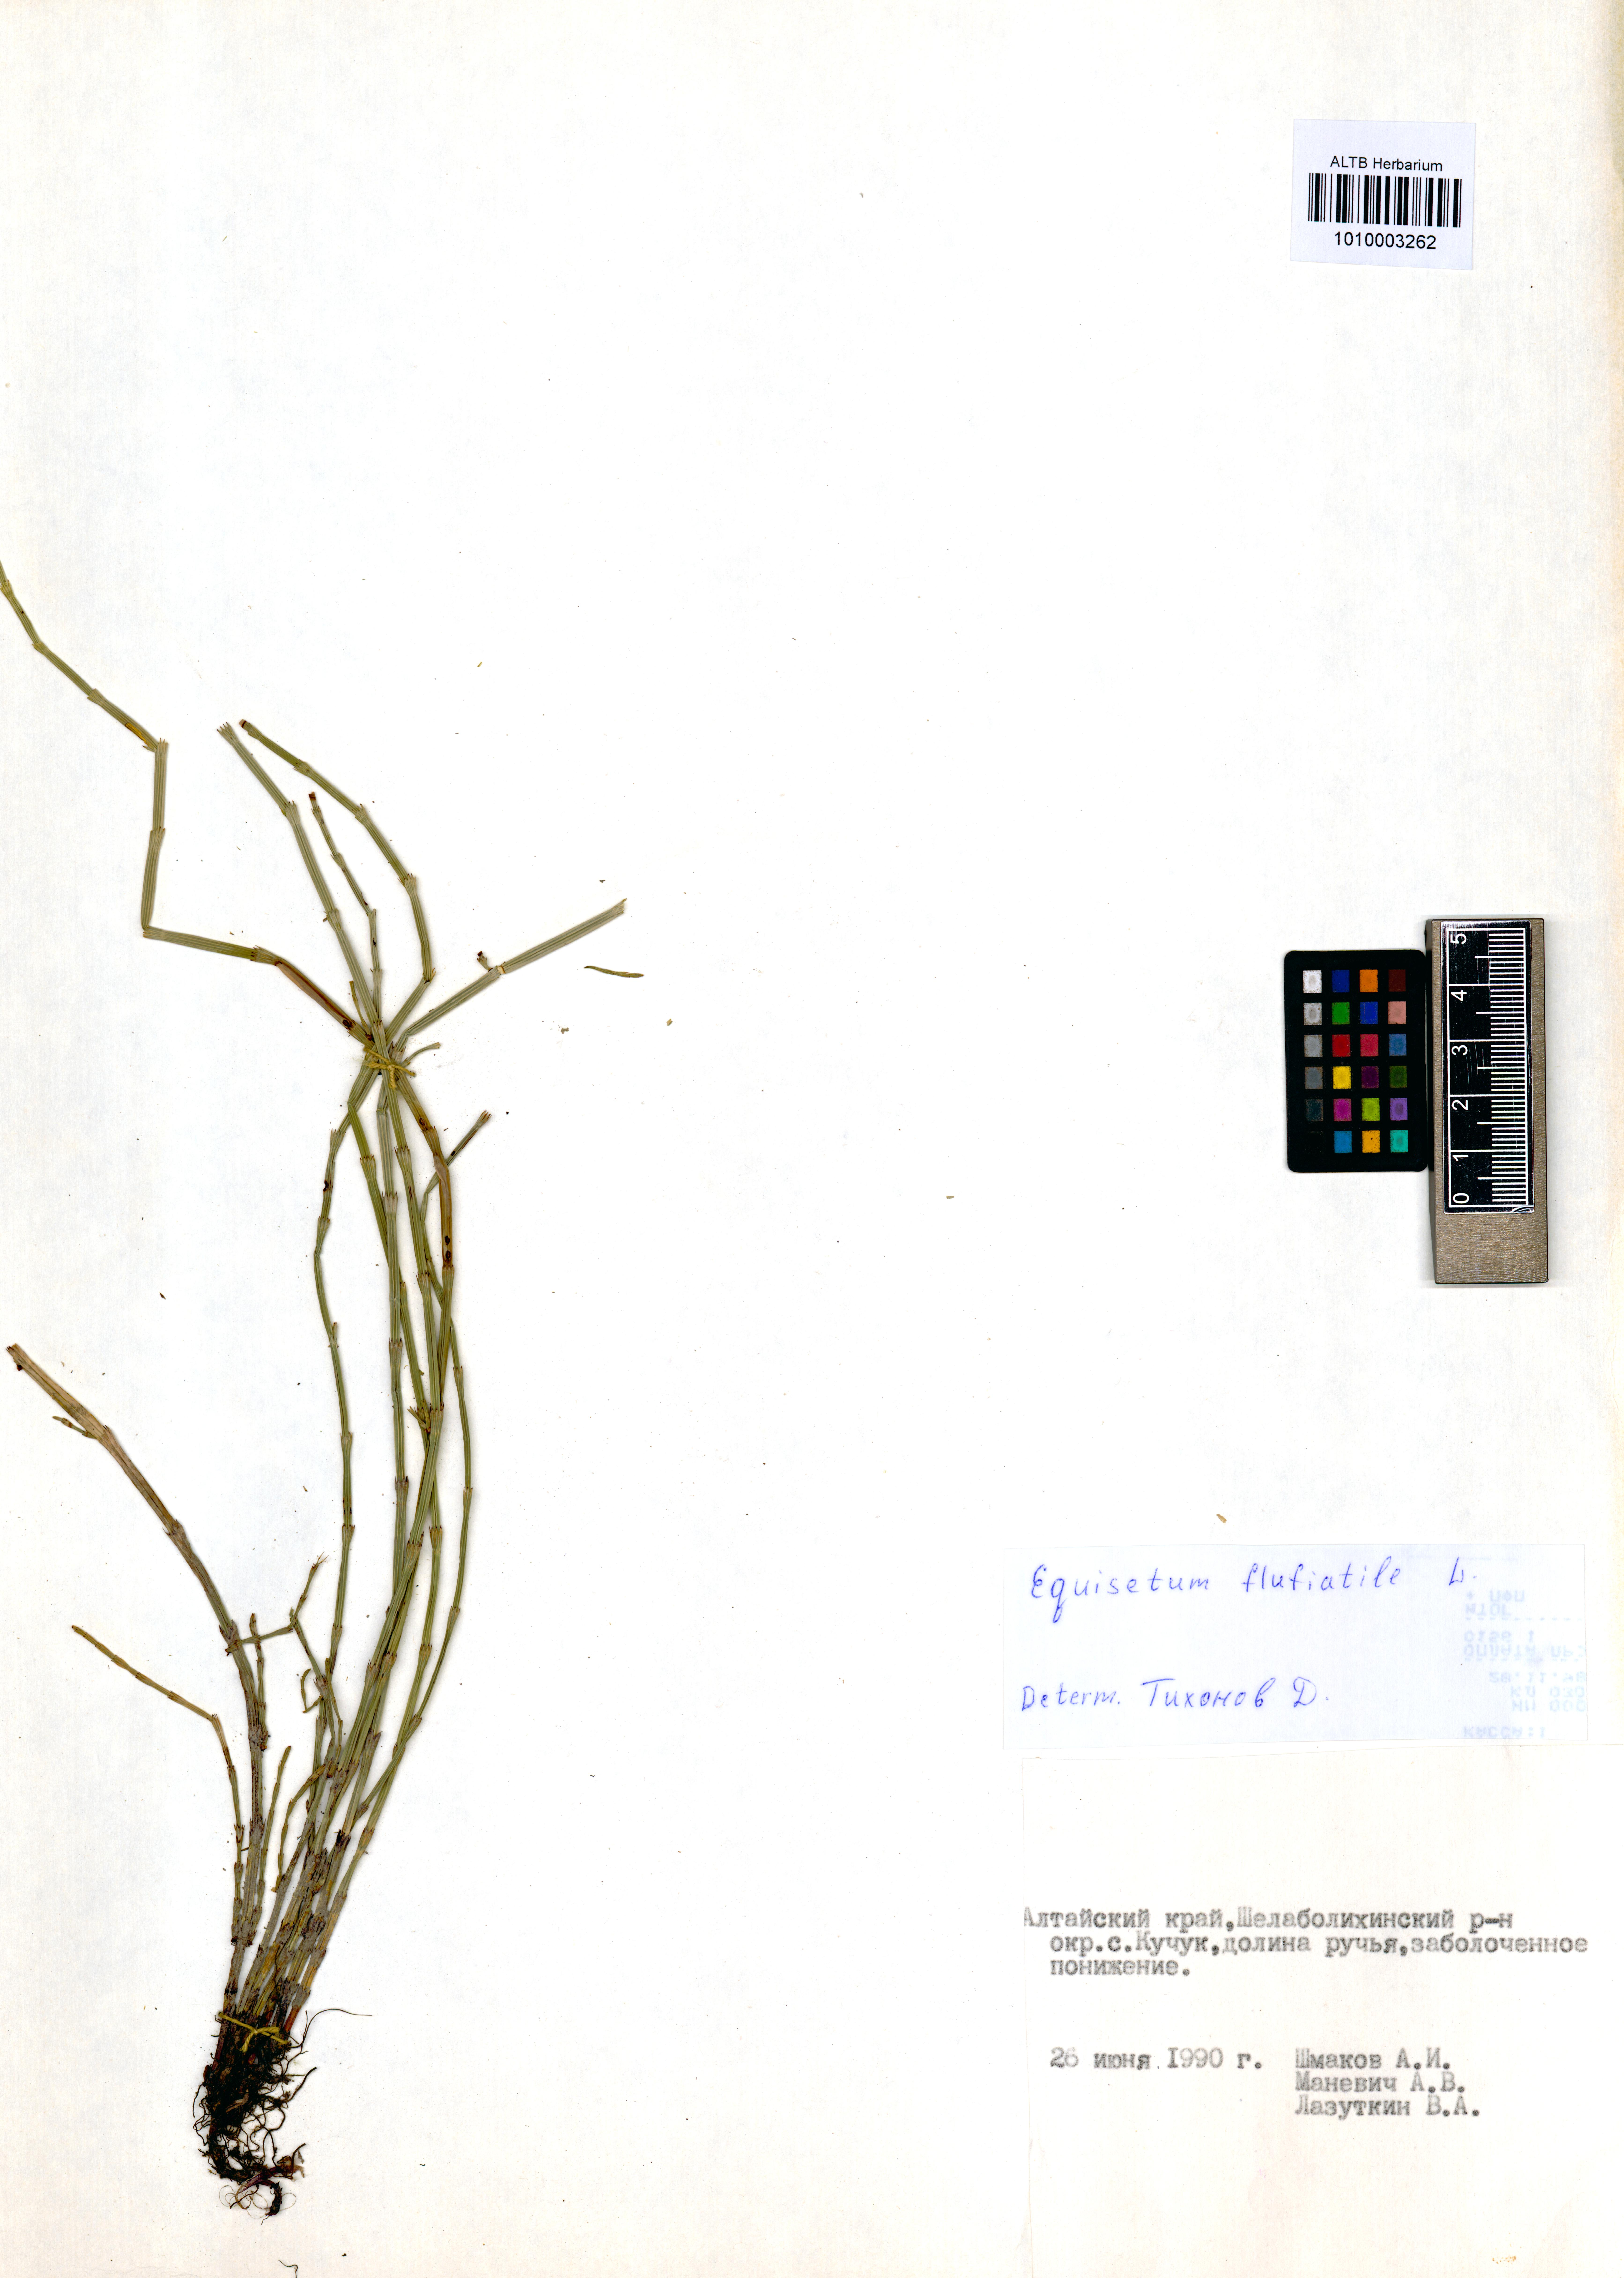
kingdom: Plantae
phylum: Tracheophyta
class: Polypodiopsida
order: Equisetales
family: Equisetaceae
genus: Equisetum
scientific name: Equisetum fluviatile
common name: Water horsetail
